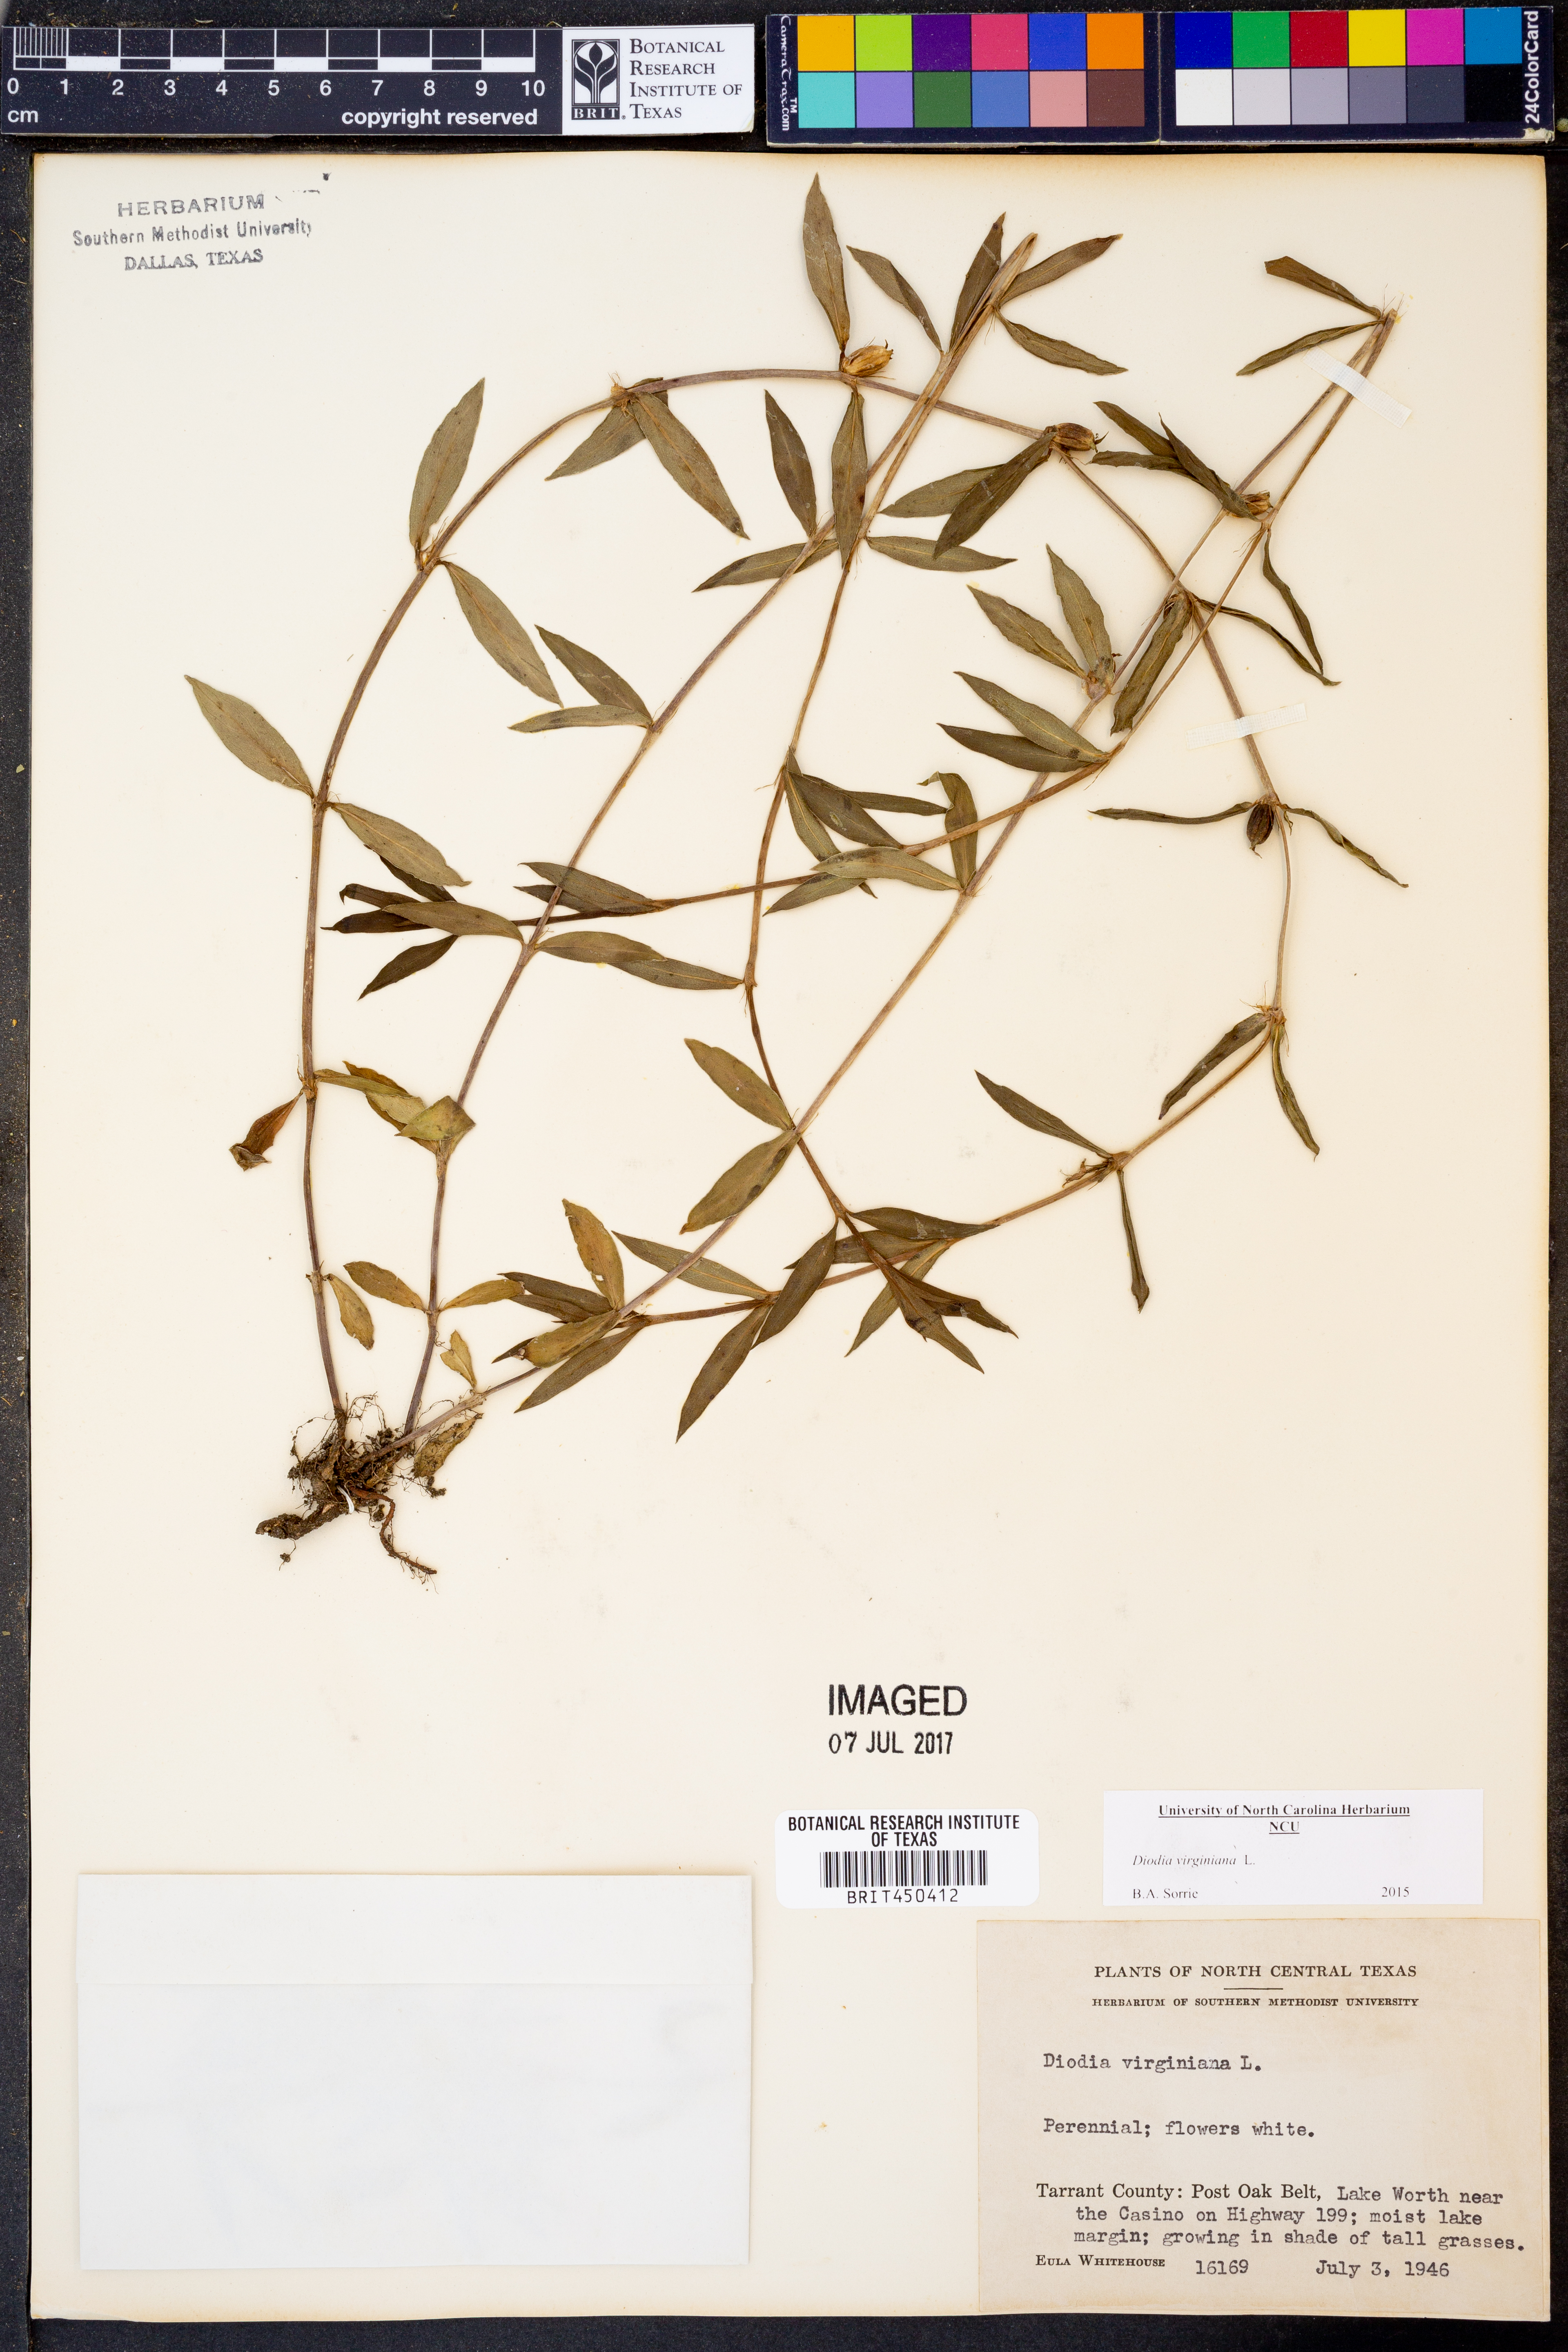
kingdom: Plantae
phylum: Tracheophyta
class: Magnoliopsida
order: Gentianales
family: Rubiaceae
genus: Diodia
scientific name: Diodia virginiana
